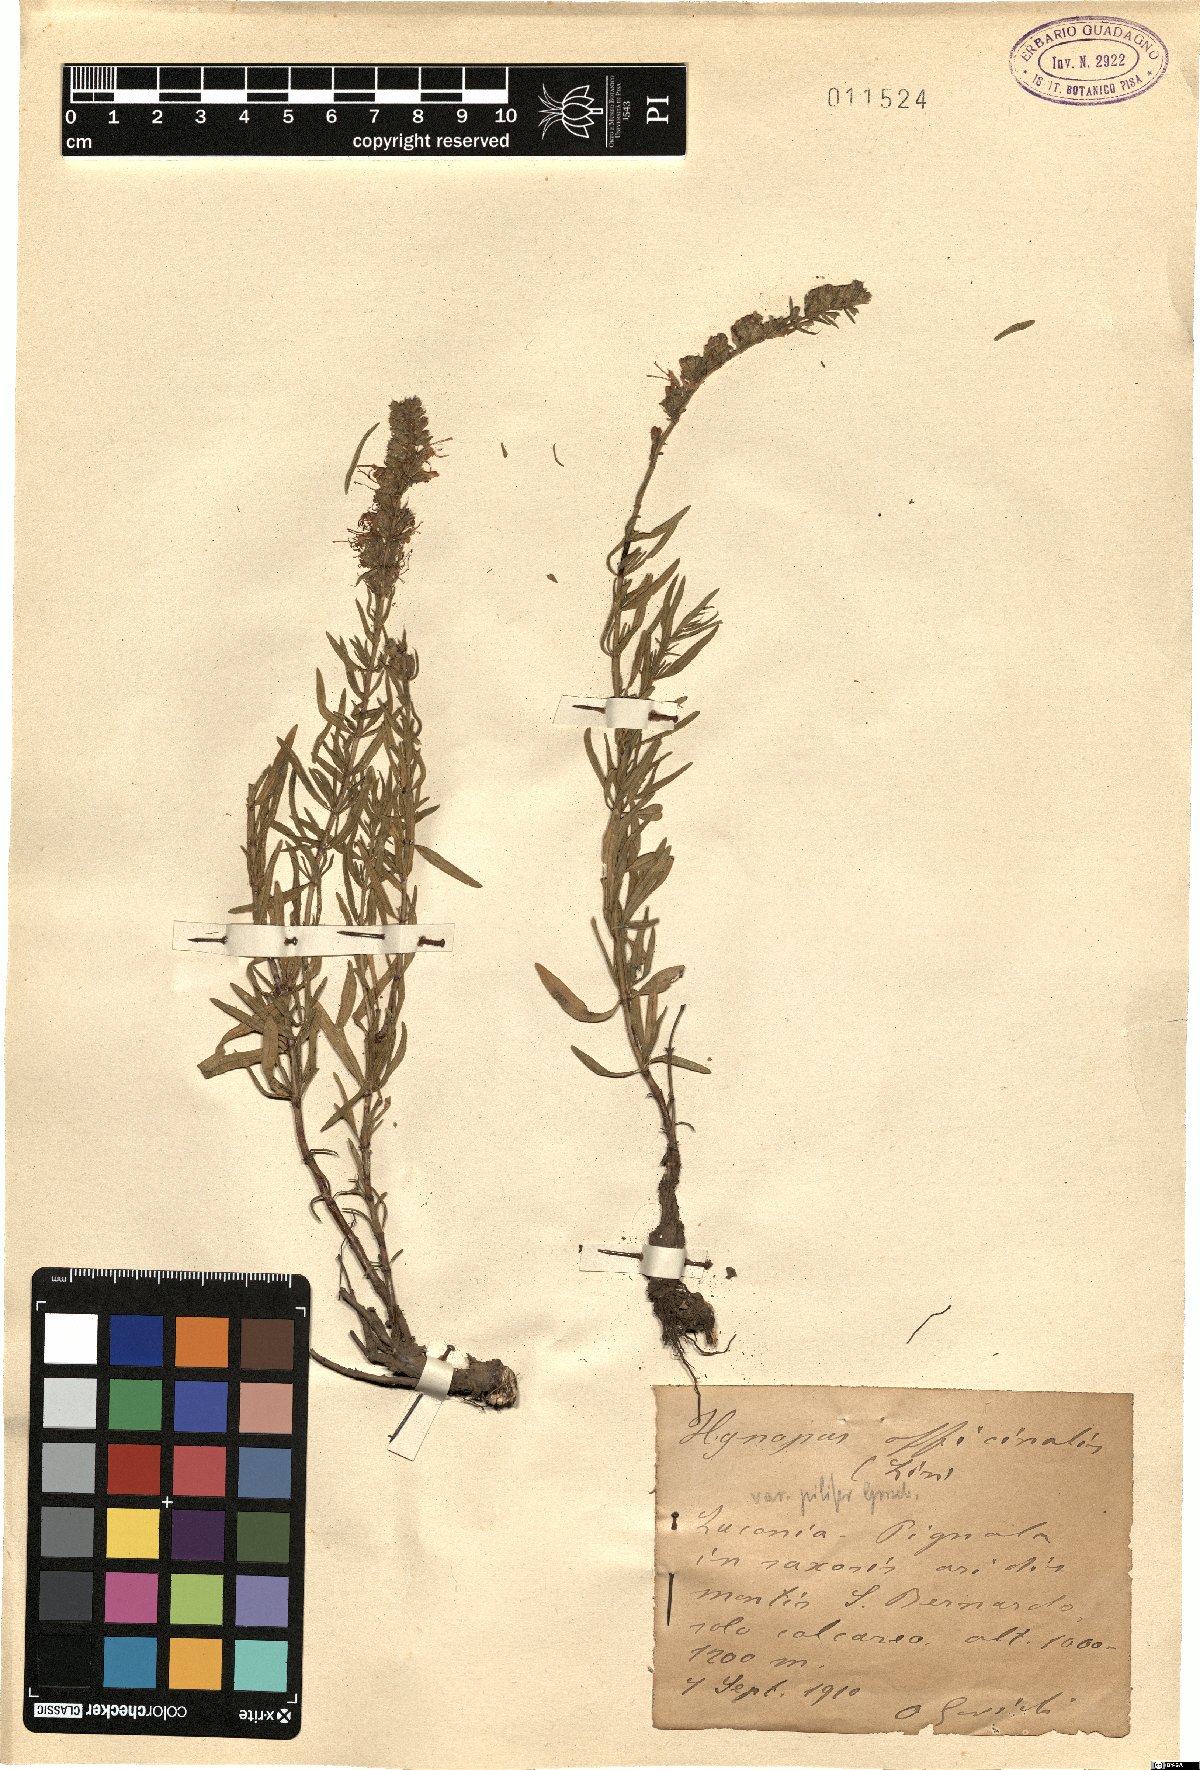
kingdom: Plantae
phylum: Tracheophyta
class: Magnoliopsida
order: Lamiales
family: Lamiaceae
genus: Hyssopus
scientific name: Hyssopus officinalis
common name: Hyssop
